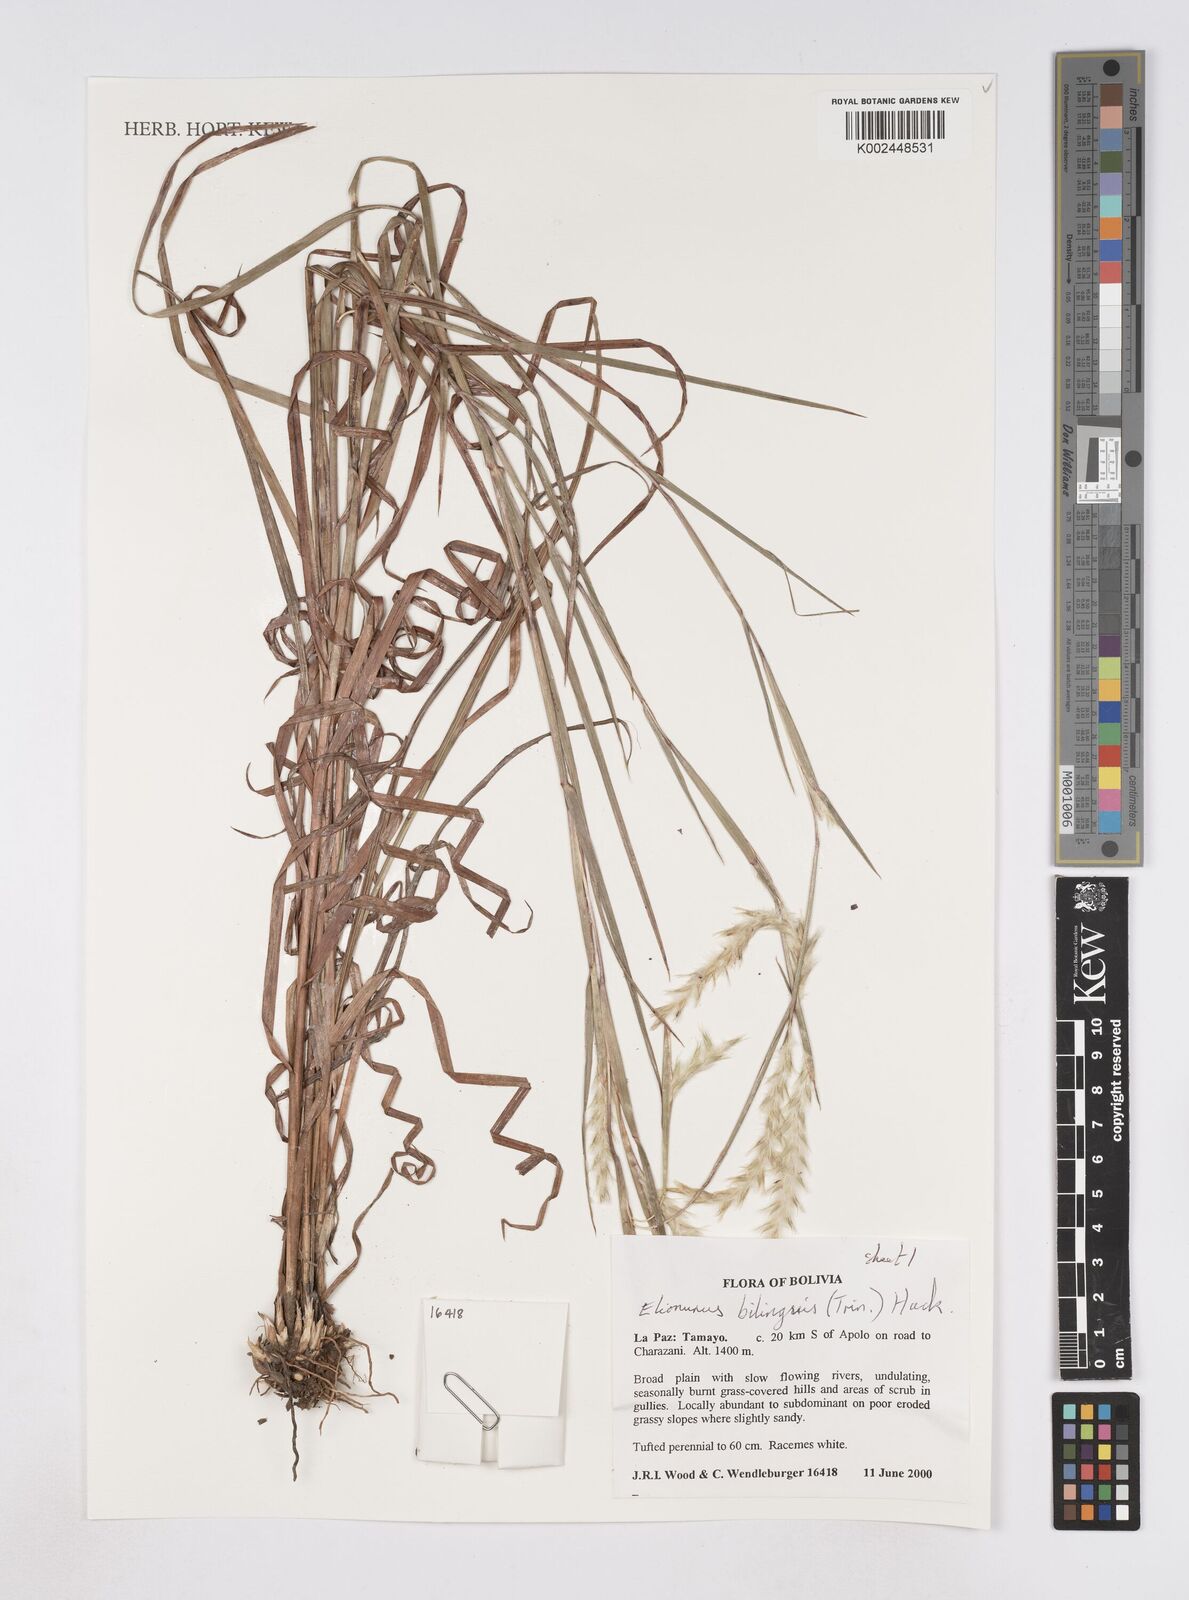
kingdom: Plantae
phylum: Tracheophyta
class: Liliopsida
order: Poales
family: Poaceae
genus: Elionurus
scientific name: Elionurus bilinguis
